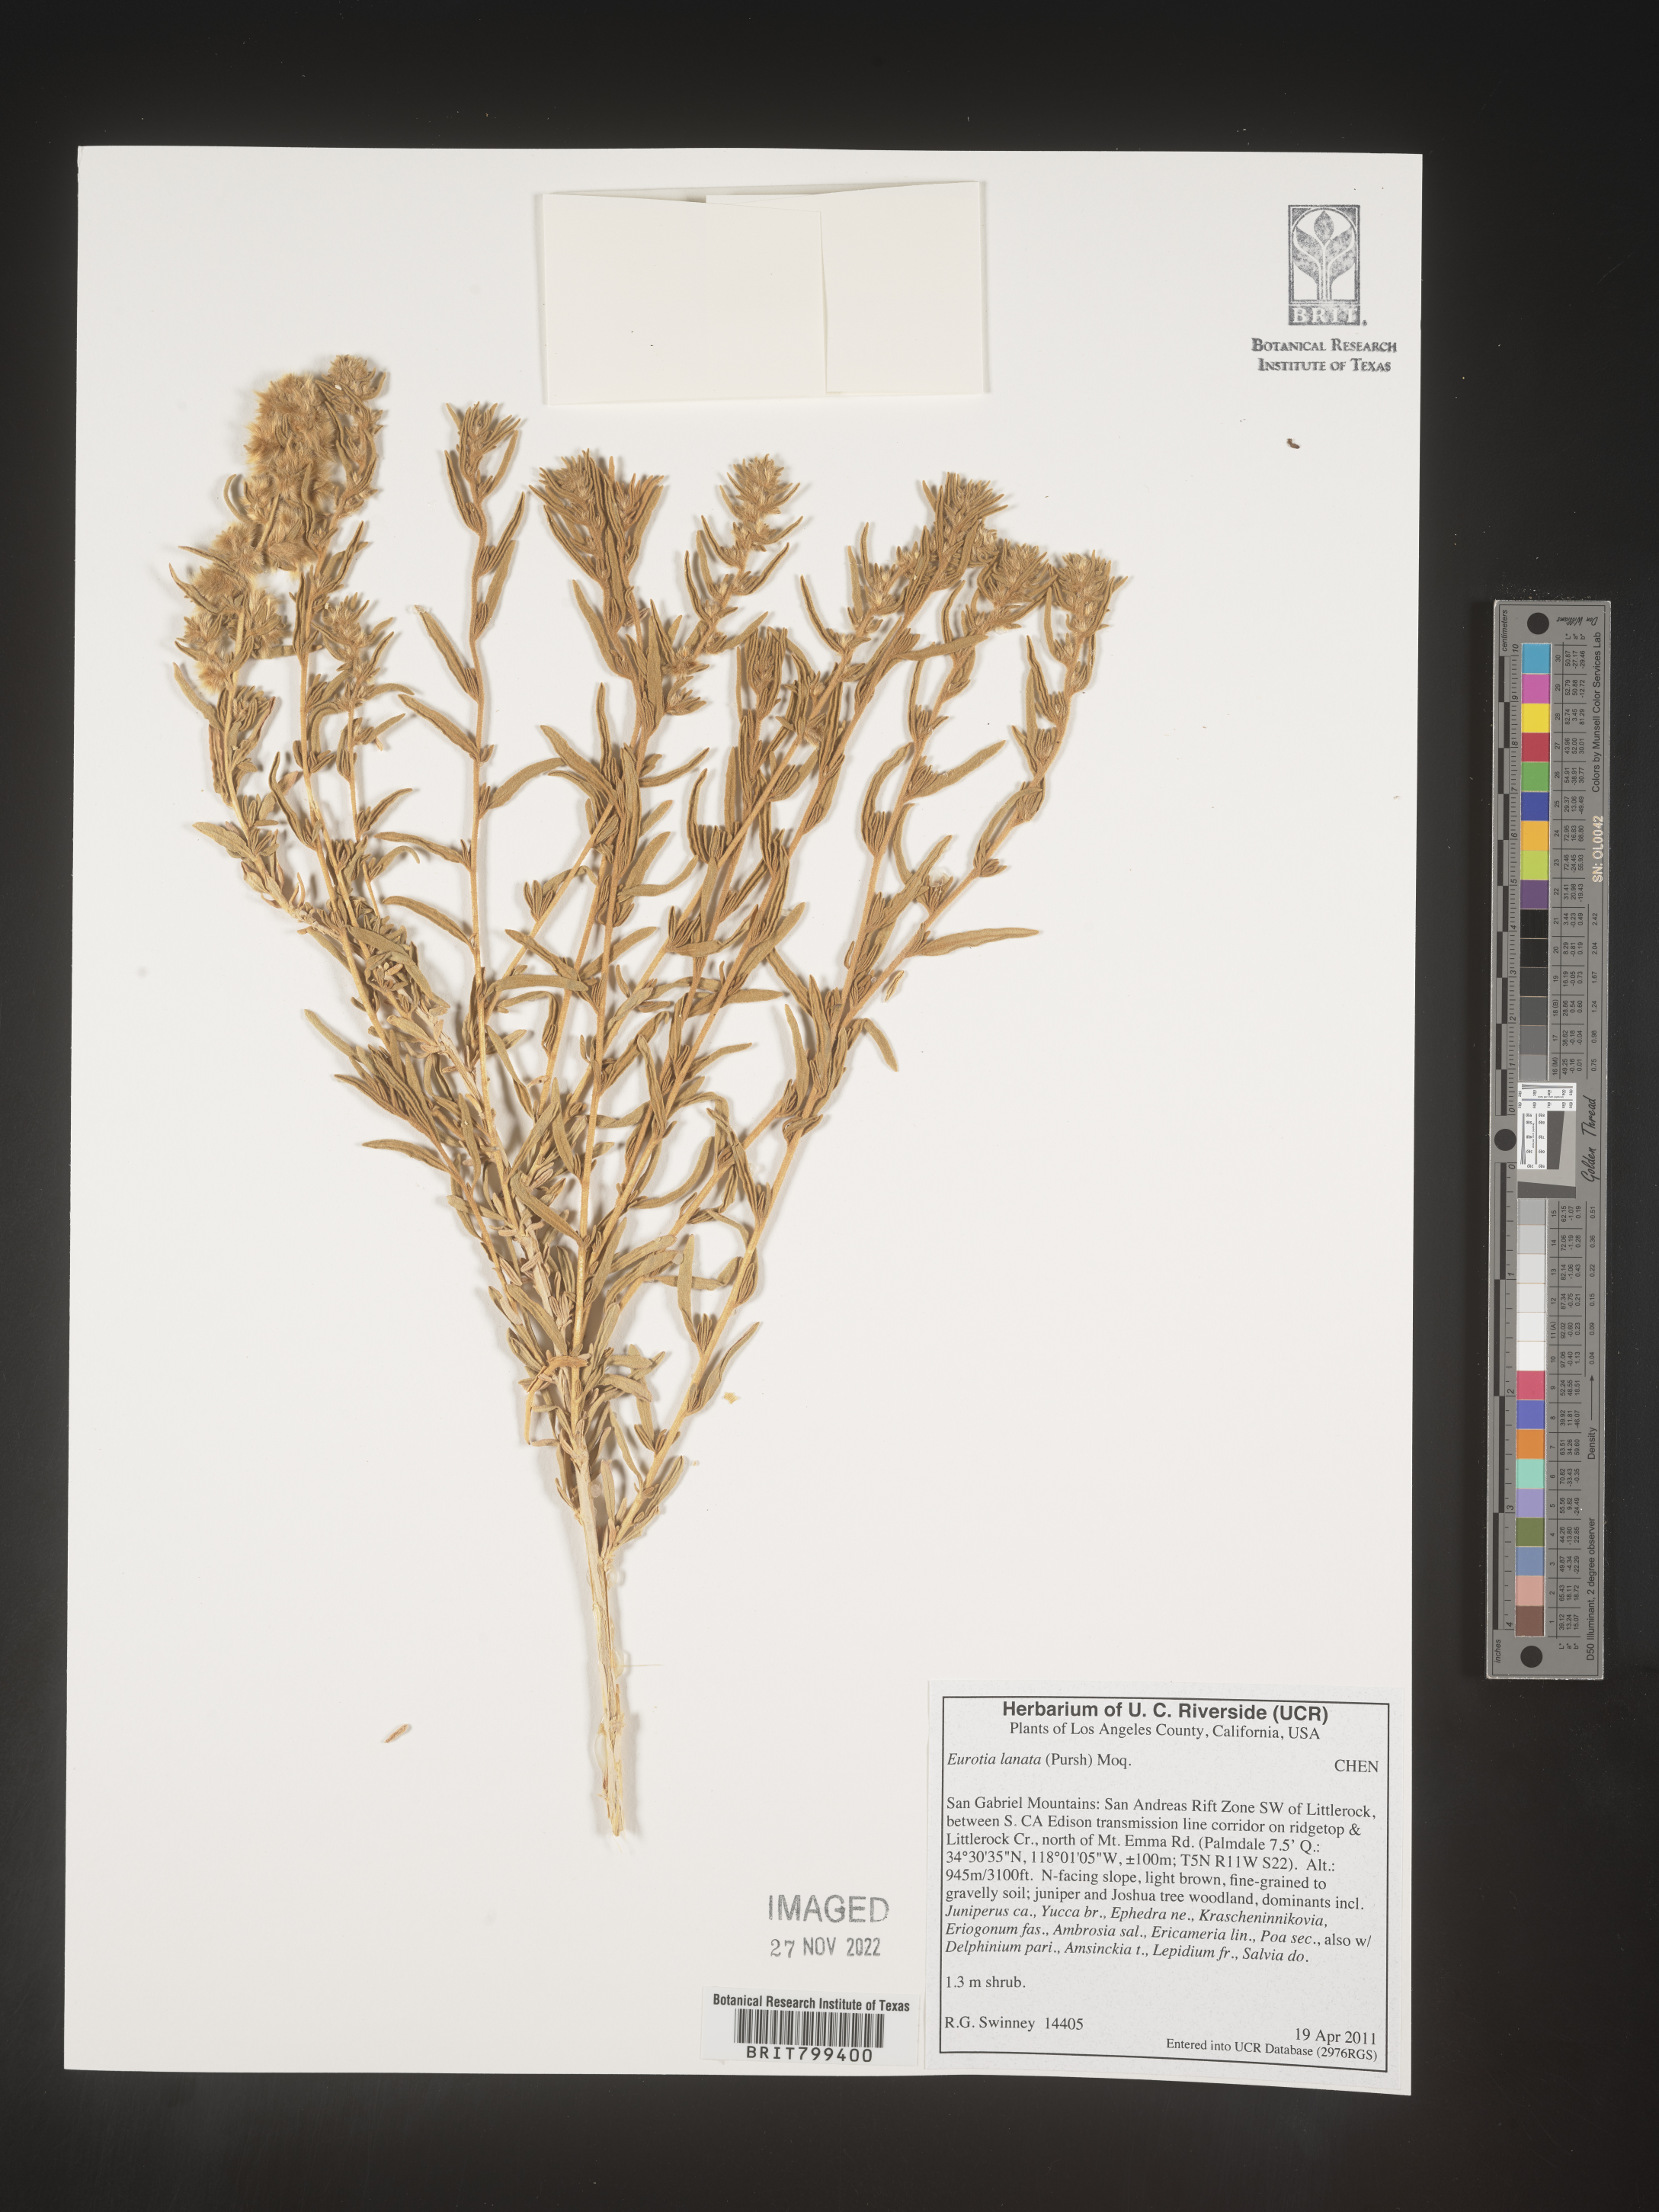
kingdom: Plantae
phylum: Tracheophyta
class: Magnoliopsida
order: Caryophyllales
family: Amaranthaceae
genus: Axyris
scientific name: Axyris
